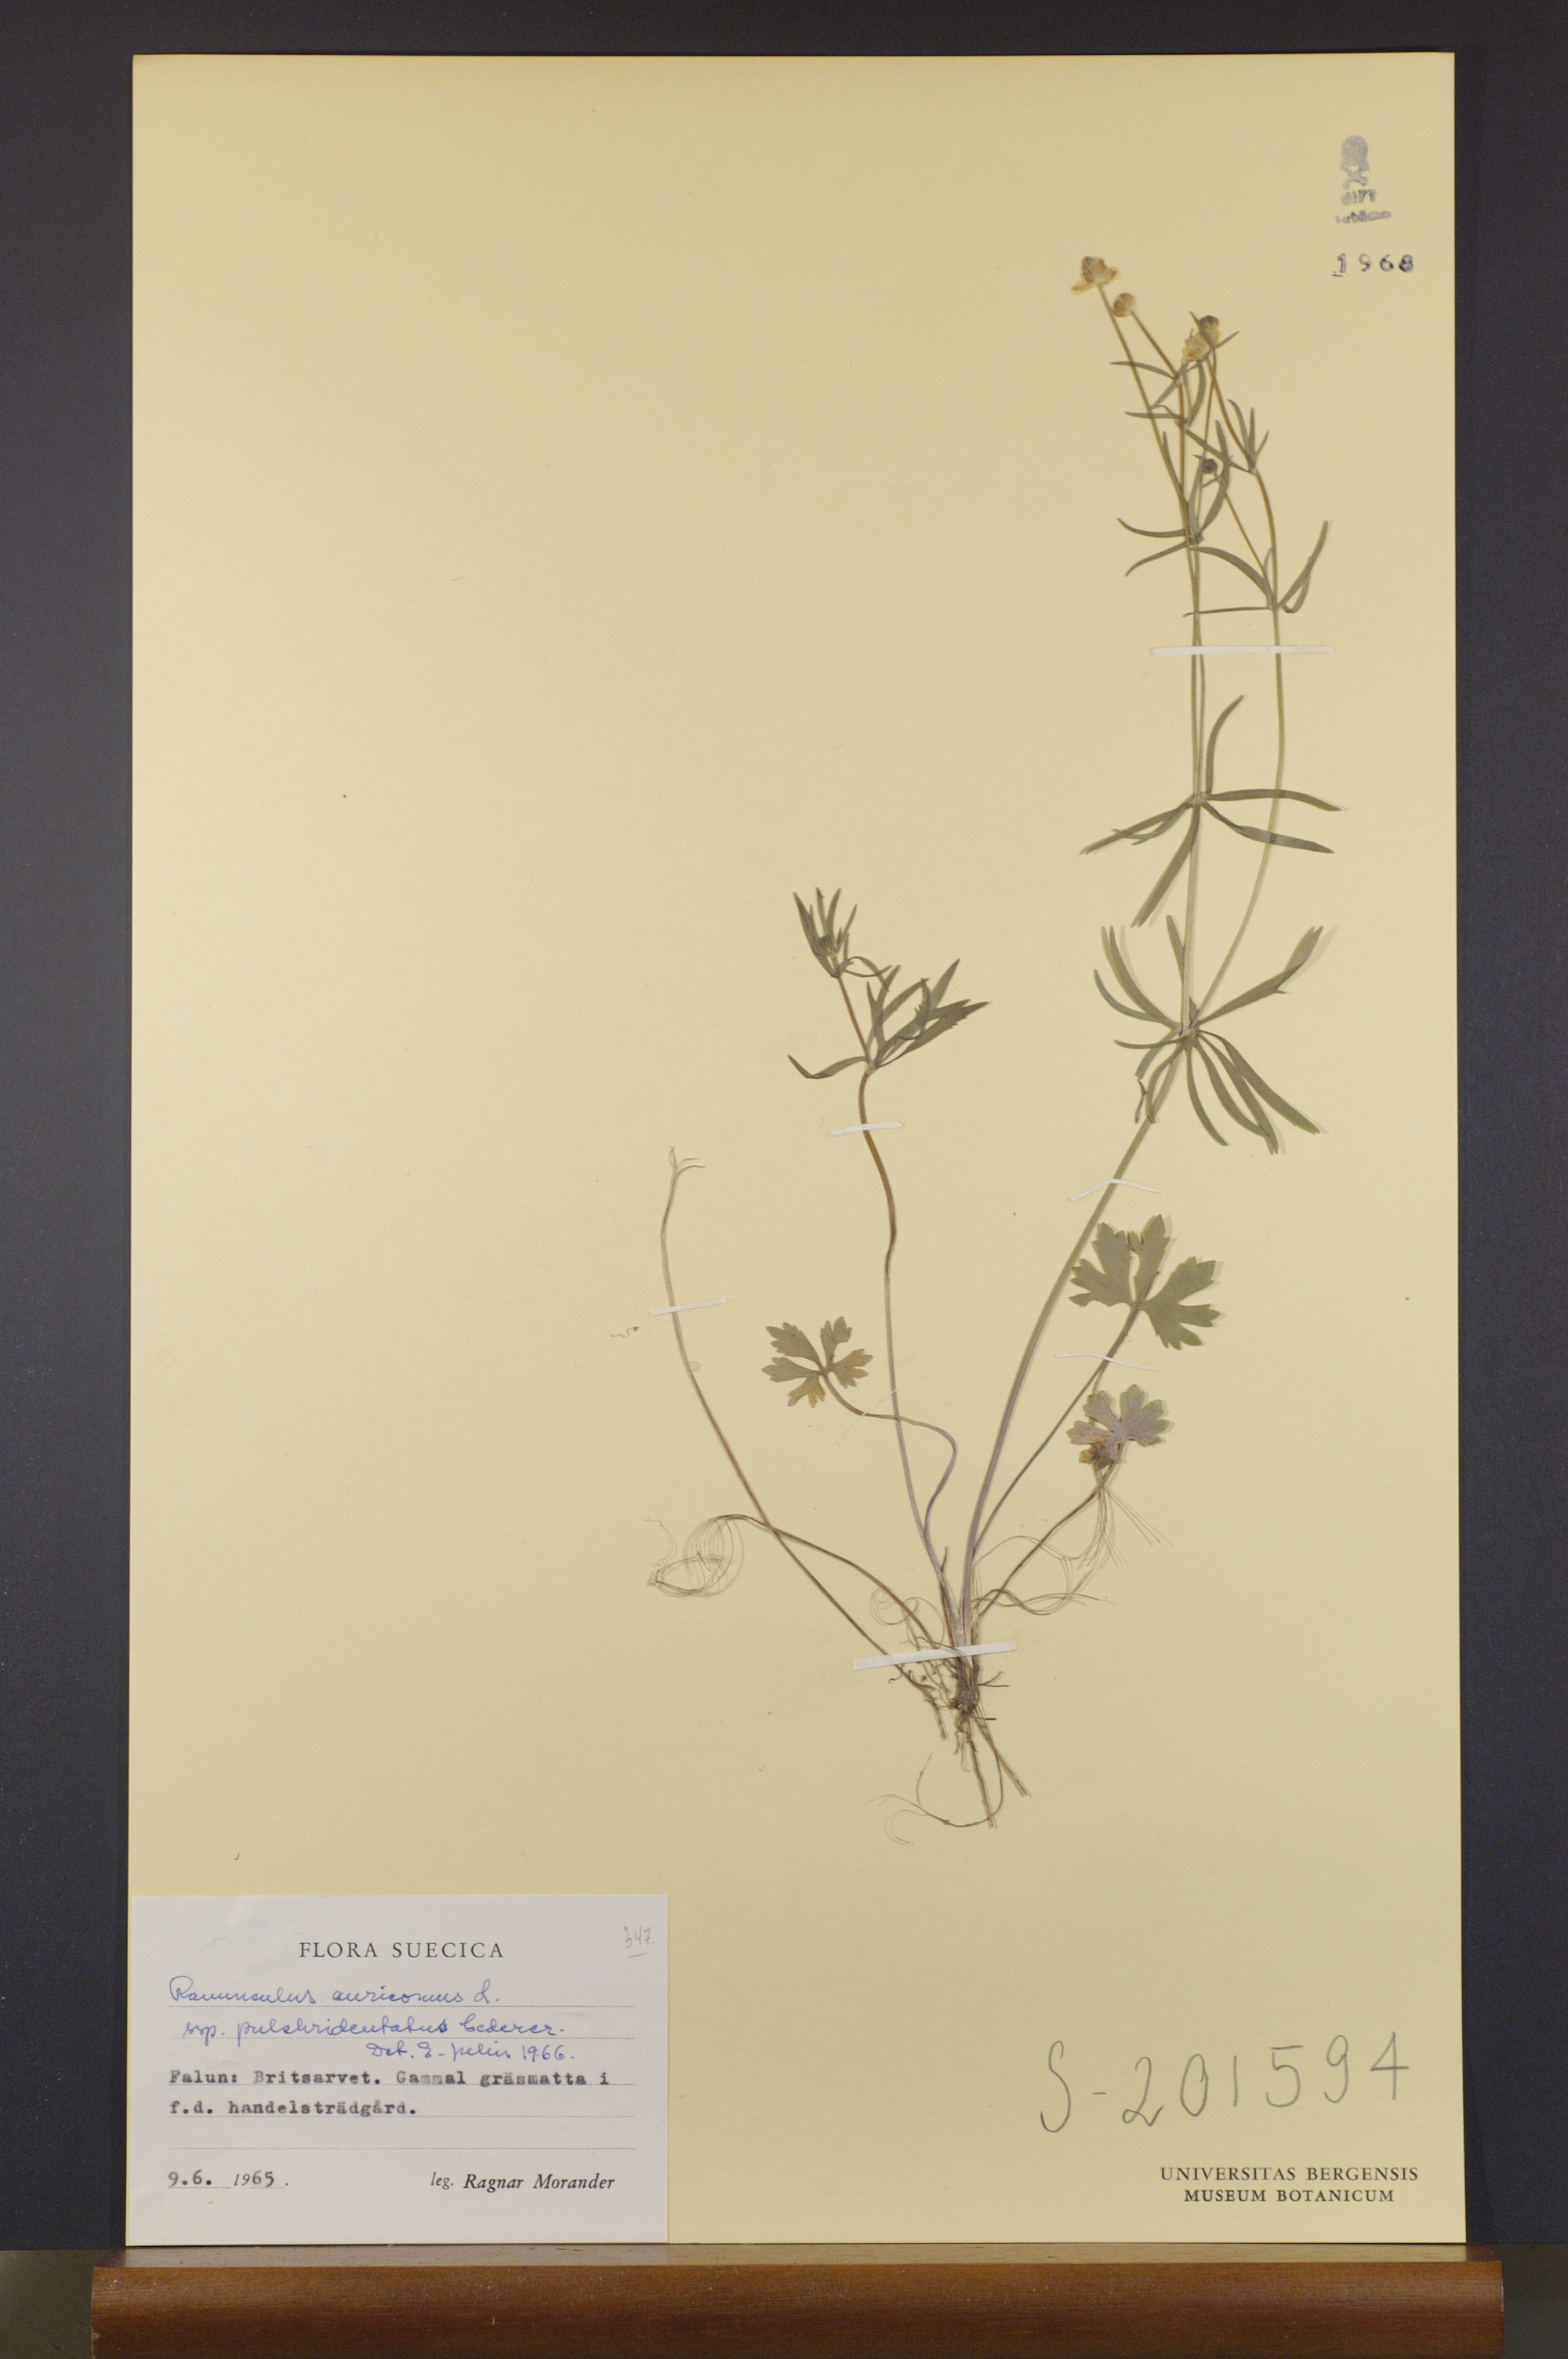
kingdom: Plantae
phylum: Tracheophyta
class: Magnoliopsida
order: Ranunculales
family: Ranunculaceae
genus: Ranunculus
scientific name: Ranunculus pulchridentatus
